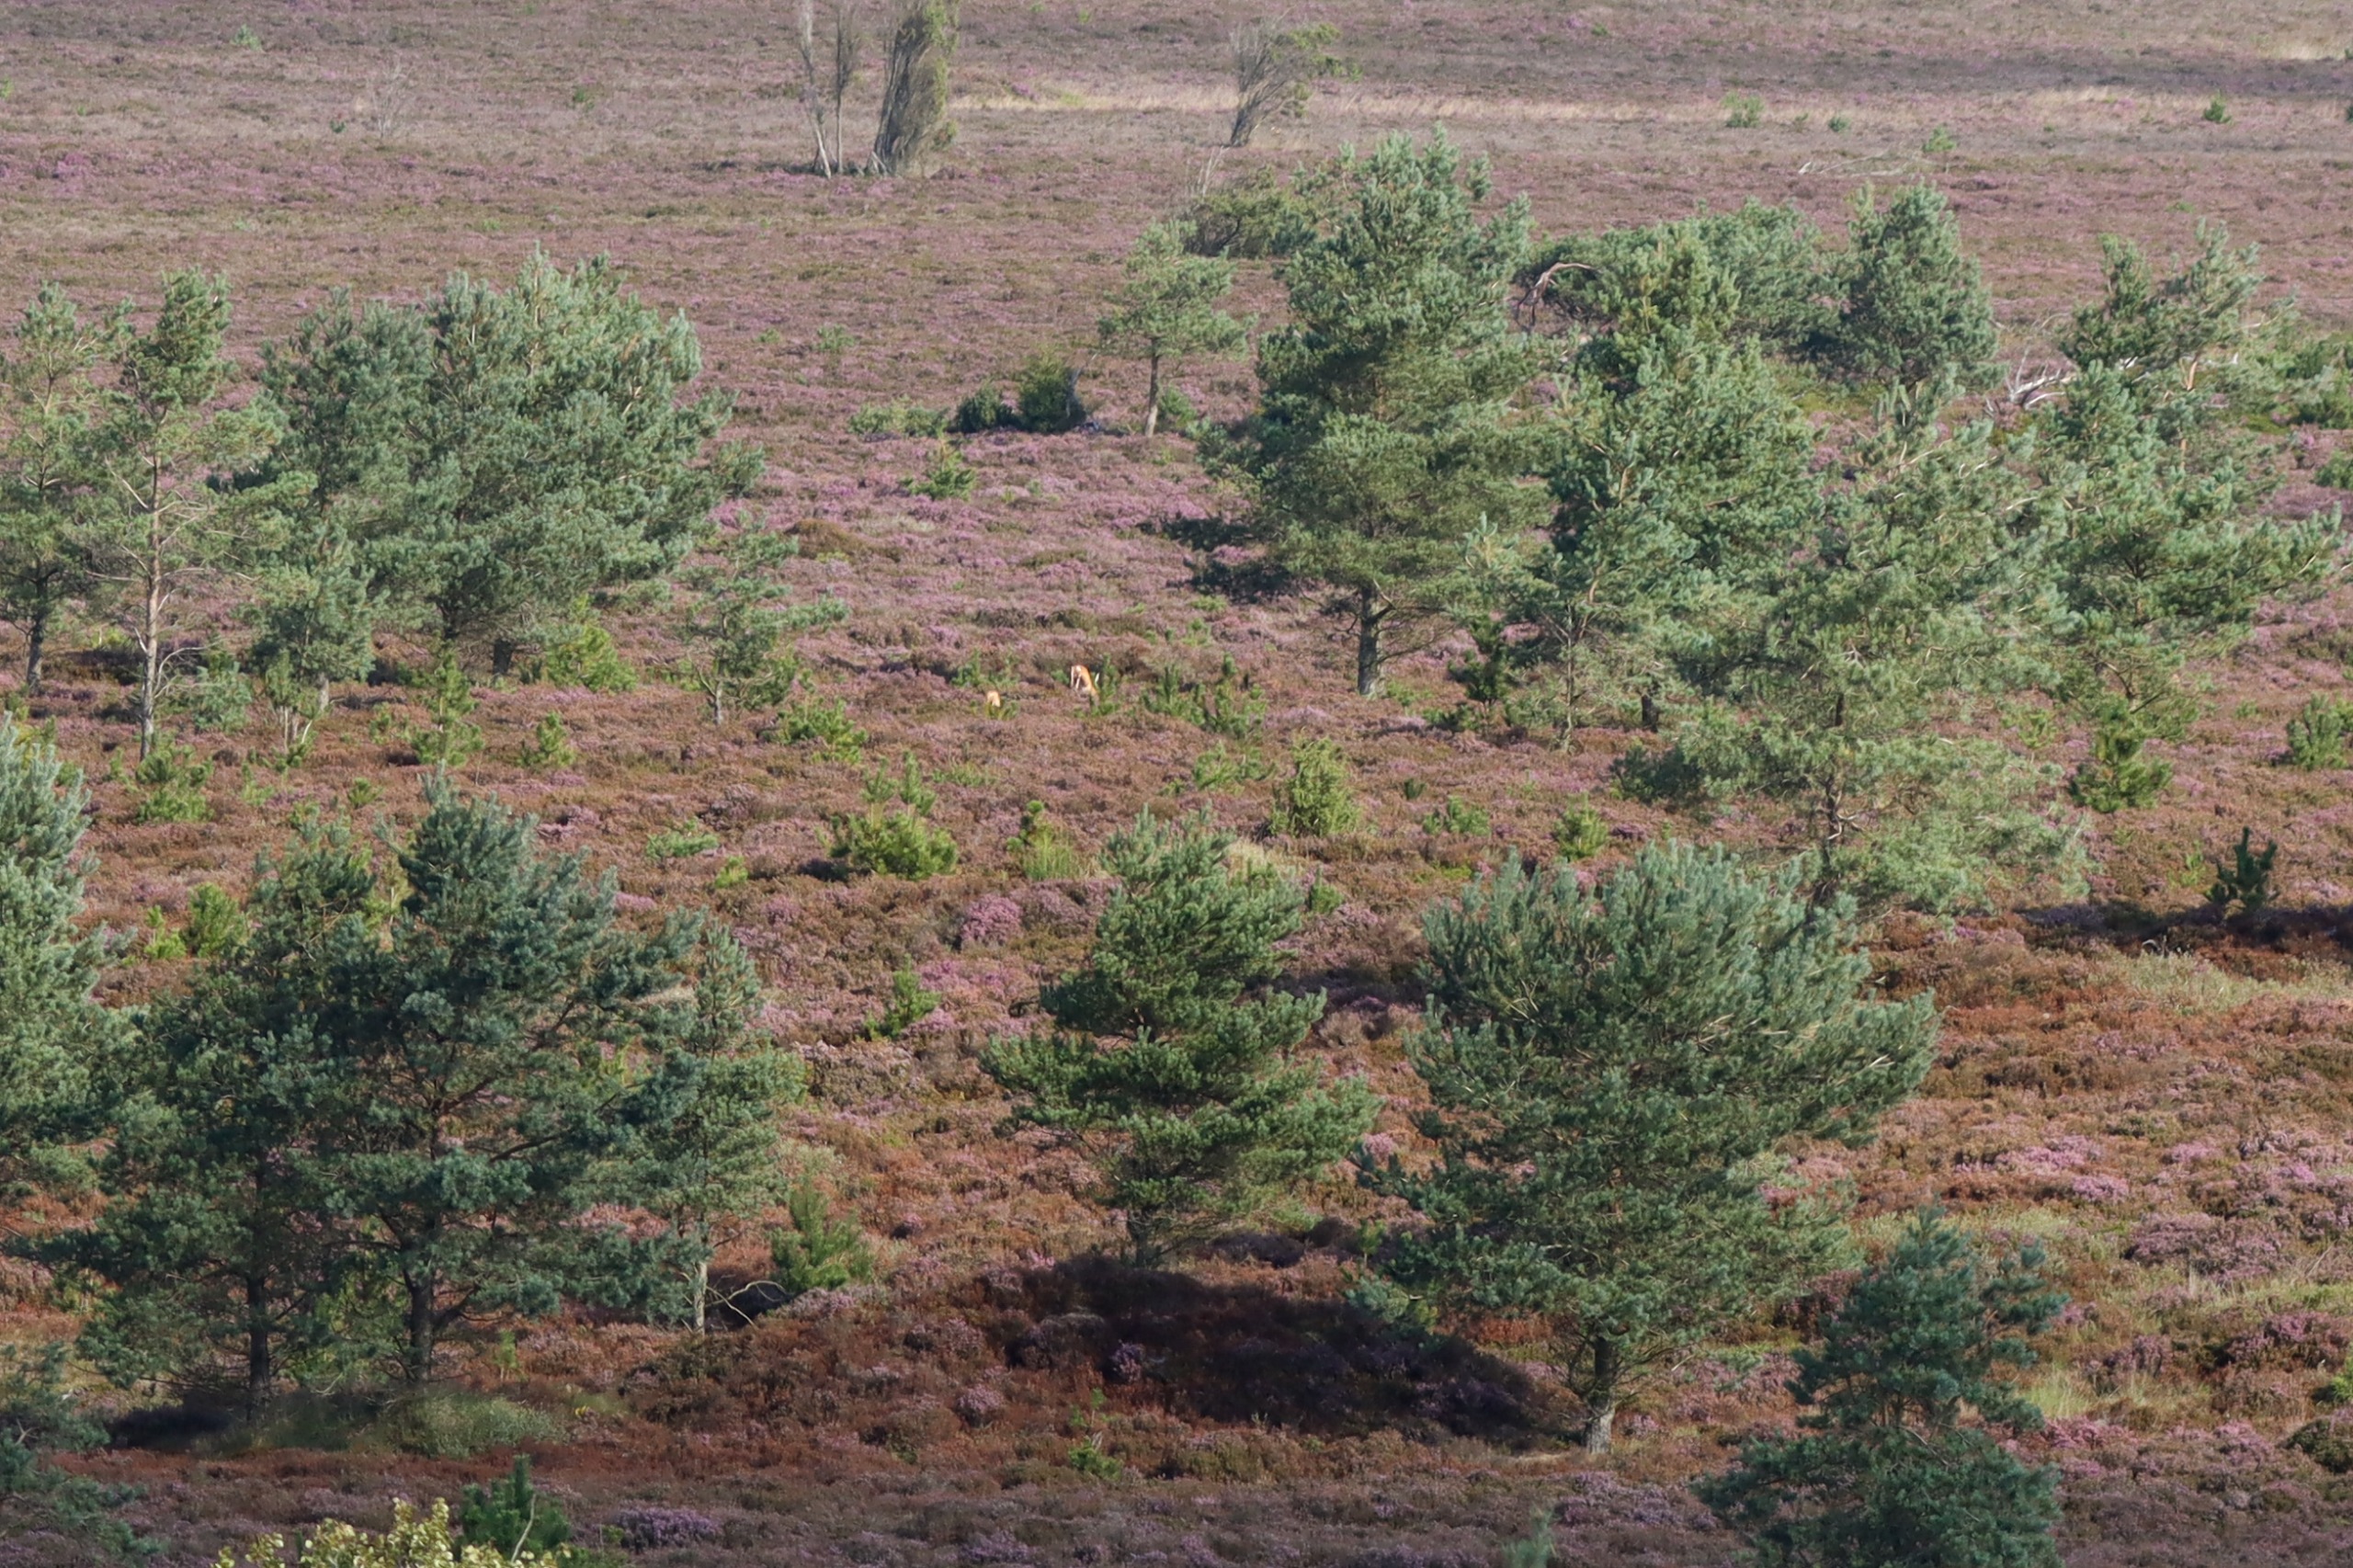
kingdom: Animalia
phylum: Chordata
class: Mammalia
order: Artiodactyla
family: Cervidae
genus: Cervus
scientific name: Cervus elaphus
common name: Krondyr
